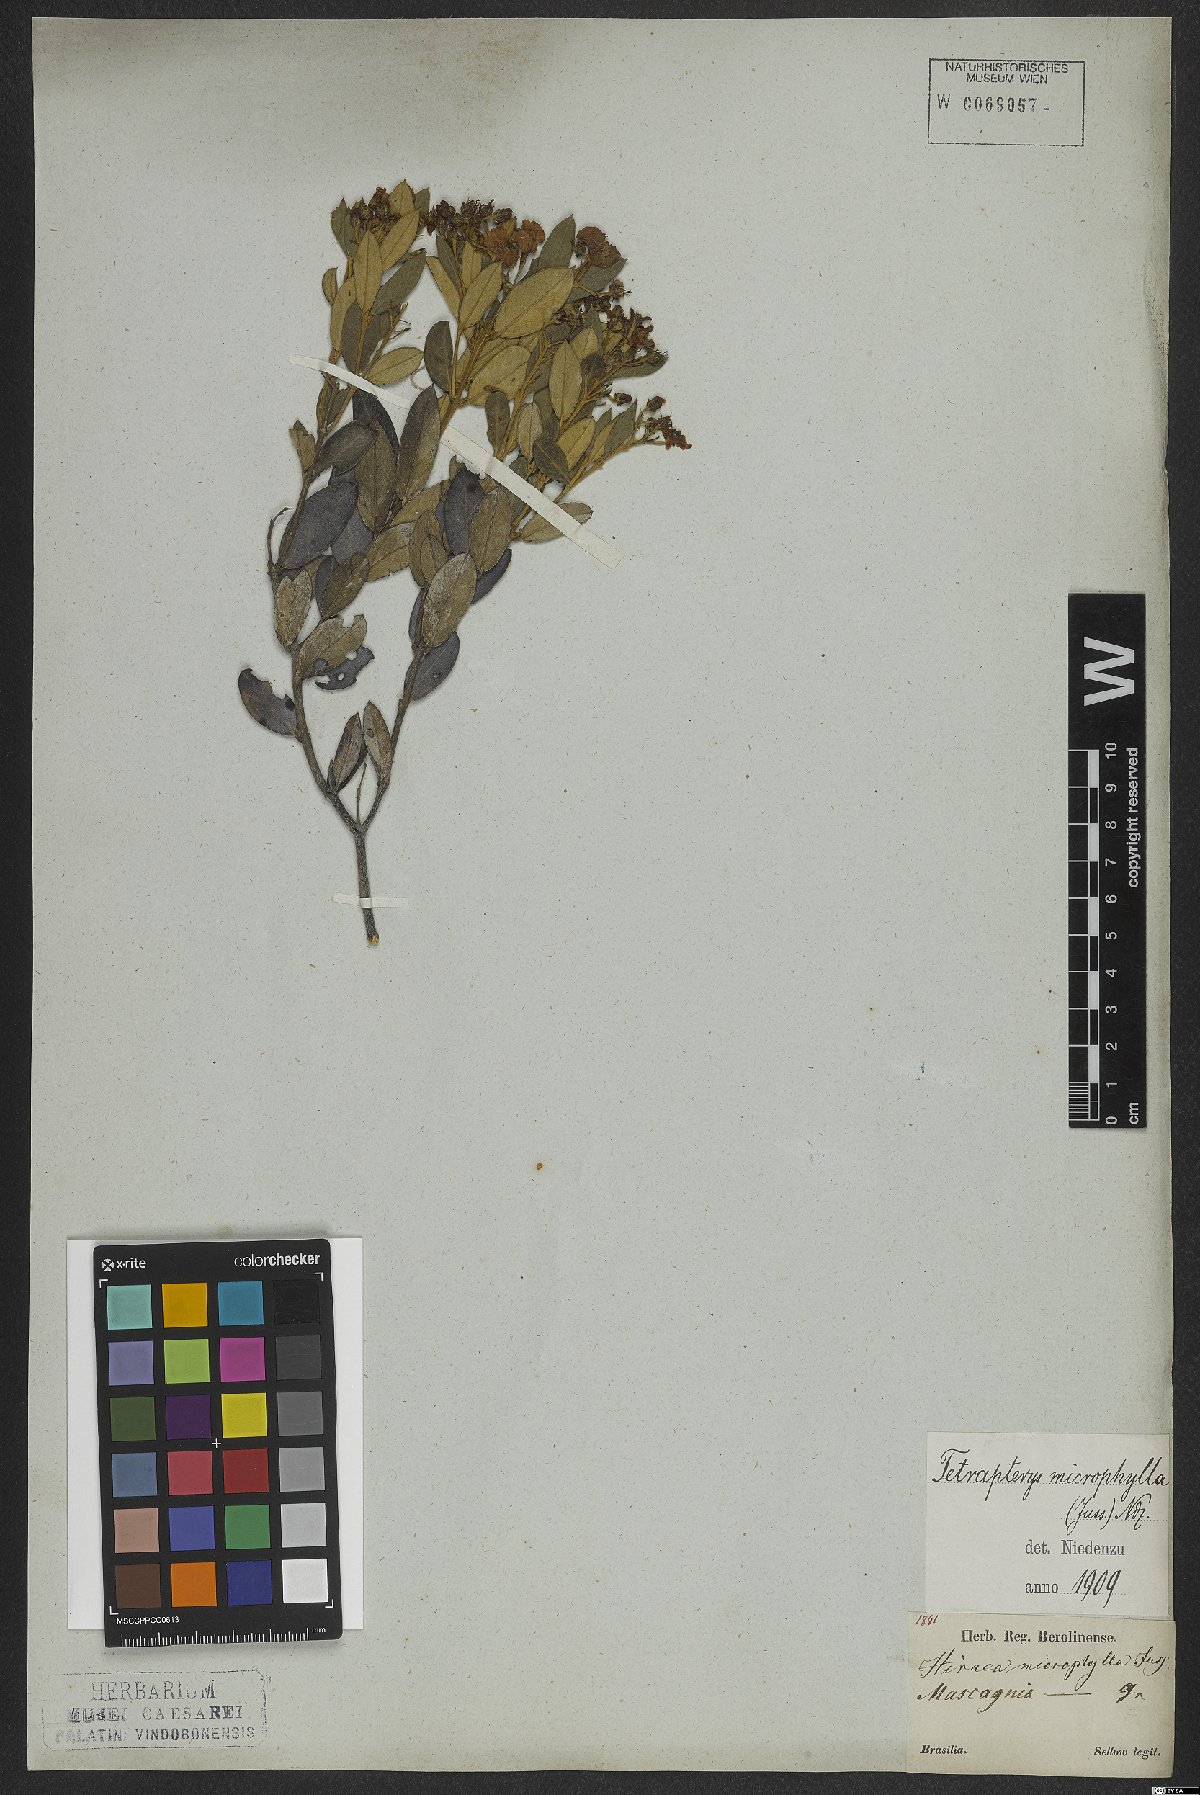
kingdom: Plantae
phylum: Tracheophyta
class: Magnoliopsida
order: Malpighiales
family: Malpighiaceae
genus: Glicophyllum
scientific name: Glicophyllum microphyllum
